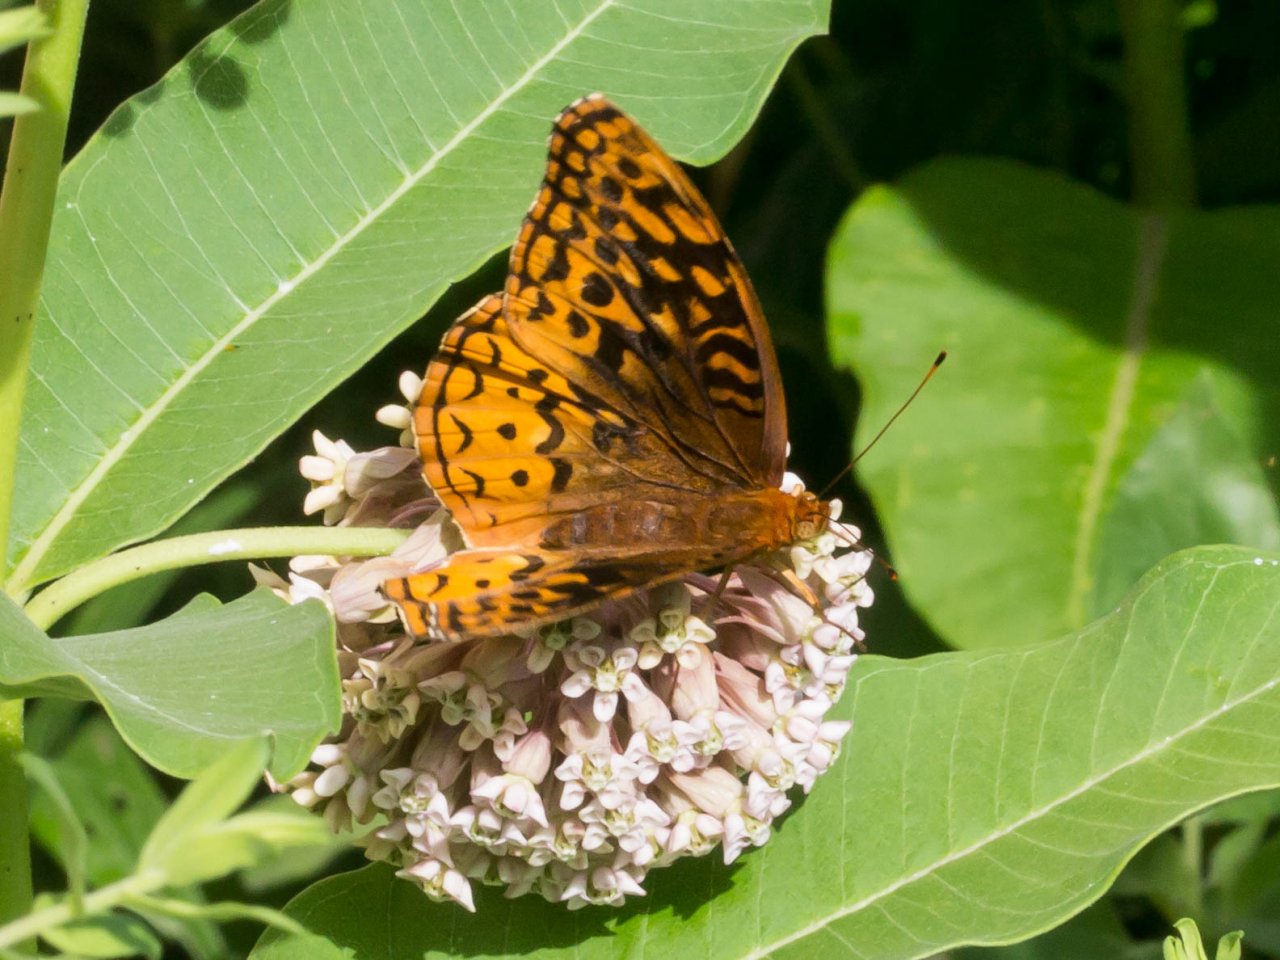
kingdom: Animalia
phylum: Arthropoda
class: Insecta
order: Lepidoptera
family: Nymphalidae
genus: Speyeria
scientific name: Speyeria cybele
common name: Great Spangled Fritillary
